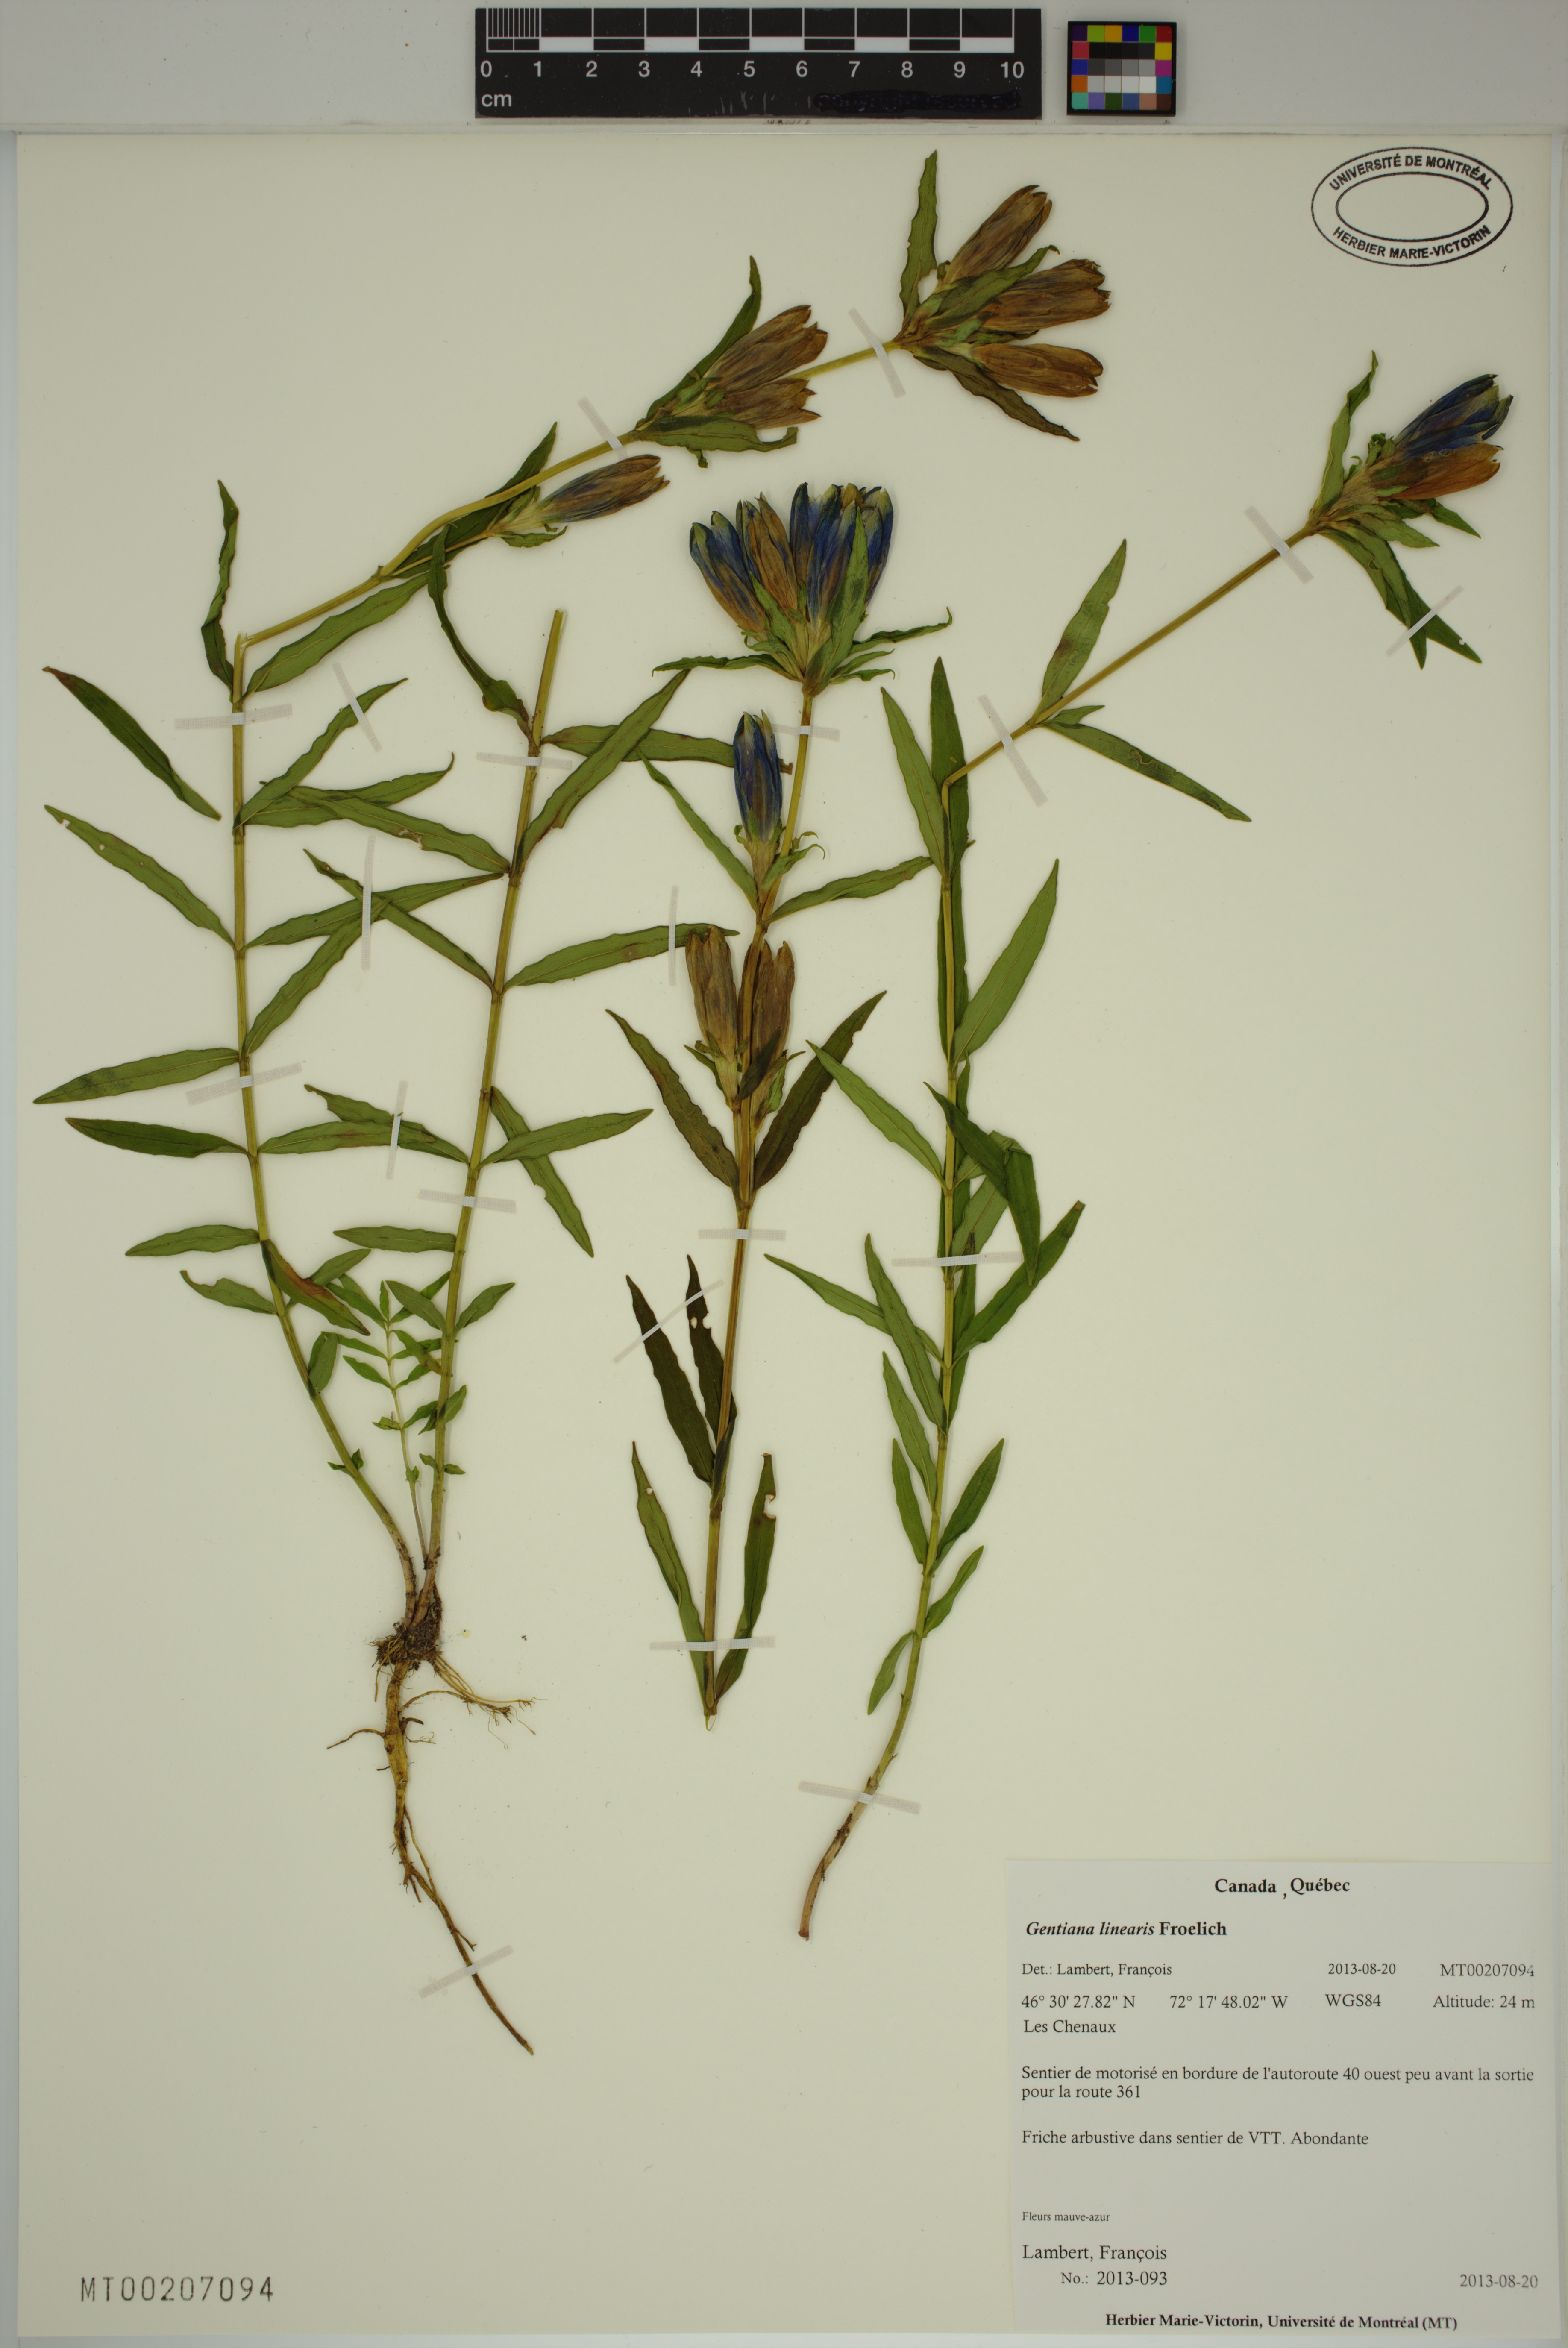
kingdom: Plantae
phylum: Tracheophyta
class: Magnoliopsida
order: Gentianales
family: Gentianaceae
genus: Gentiana
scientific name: Gentiana linearis
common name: Bastard gentian
